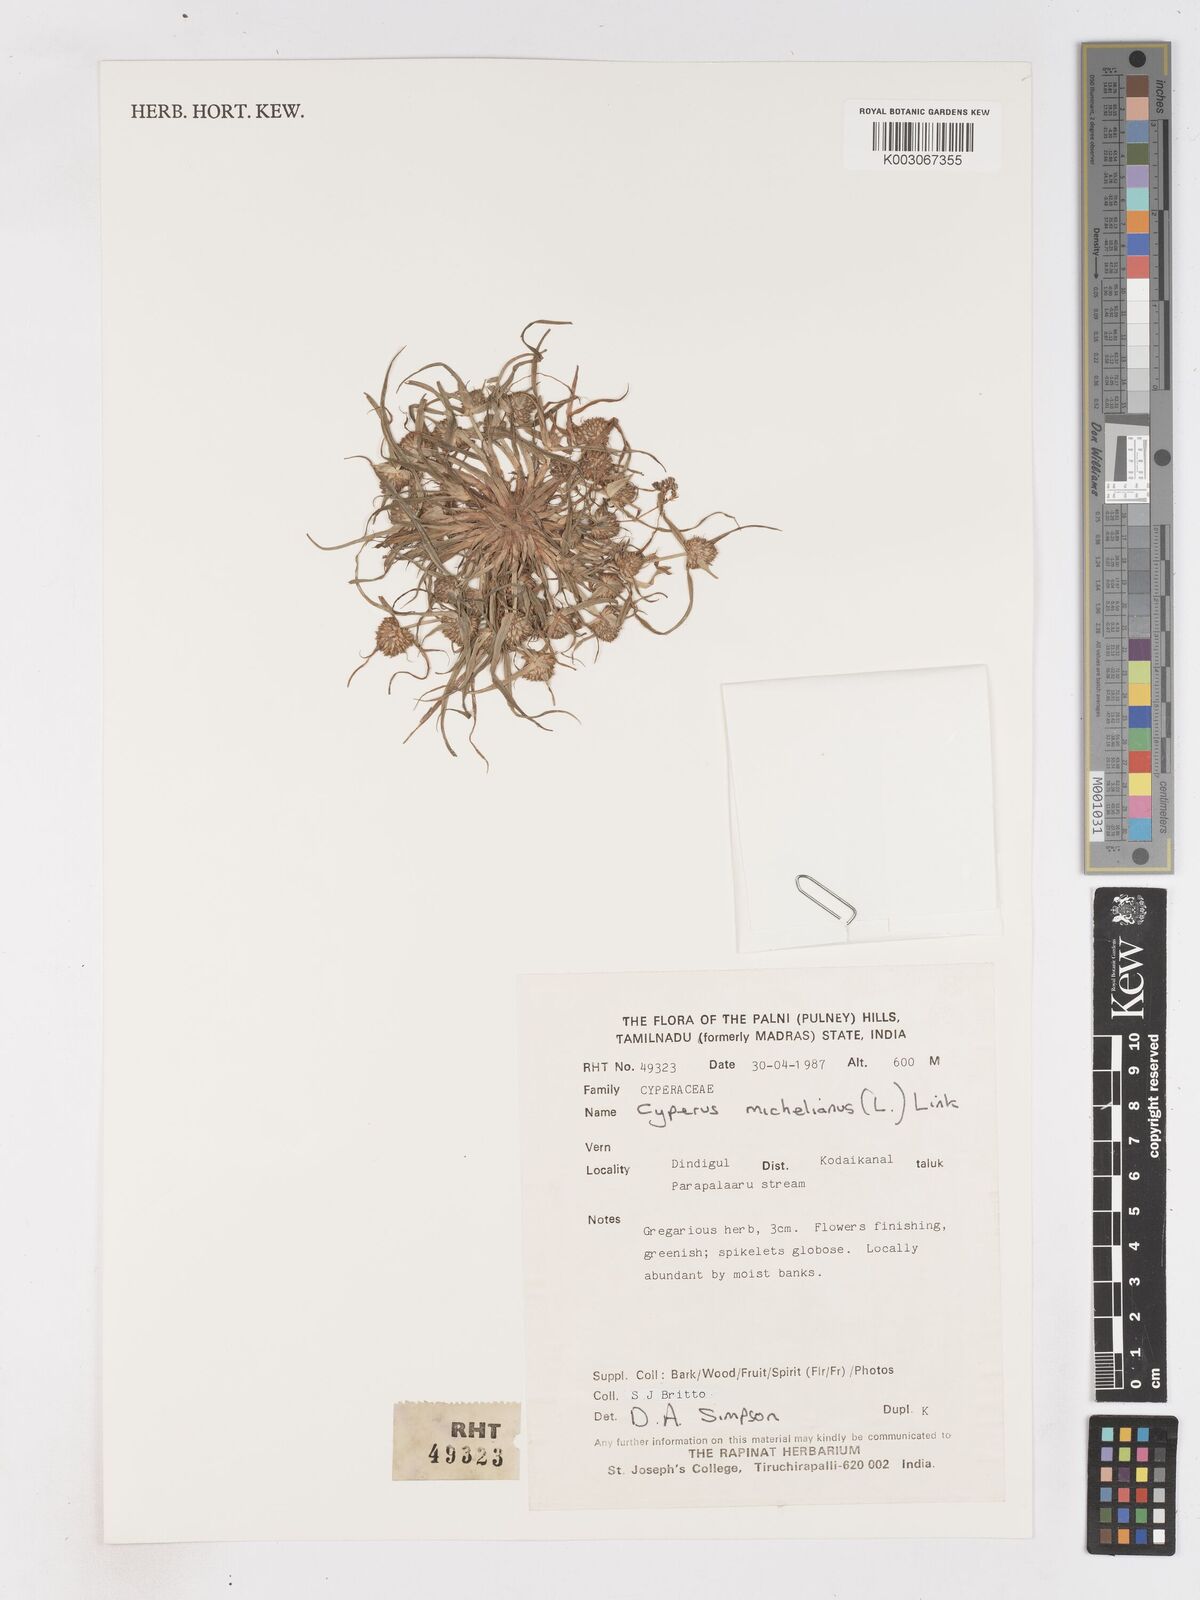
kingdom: Plantae
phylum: Tracheophyta
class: Liliopsida
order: Poales
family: Cyperaceae
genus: Cyperus
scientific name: Cyperus michelianus
